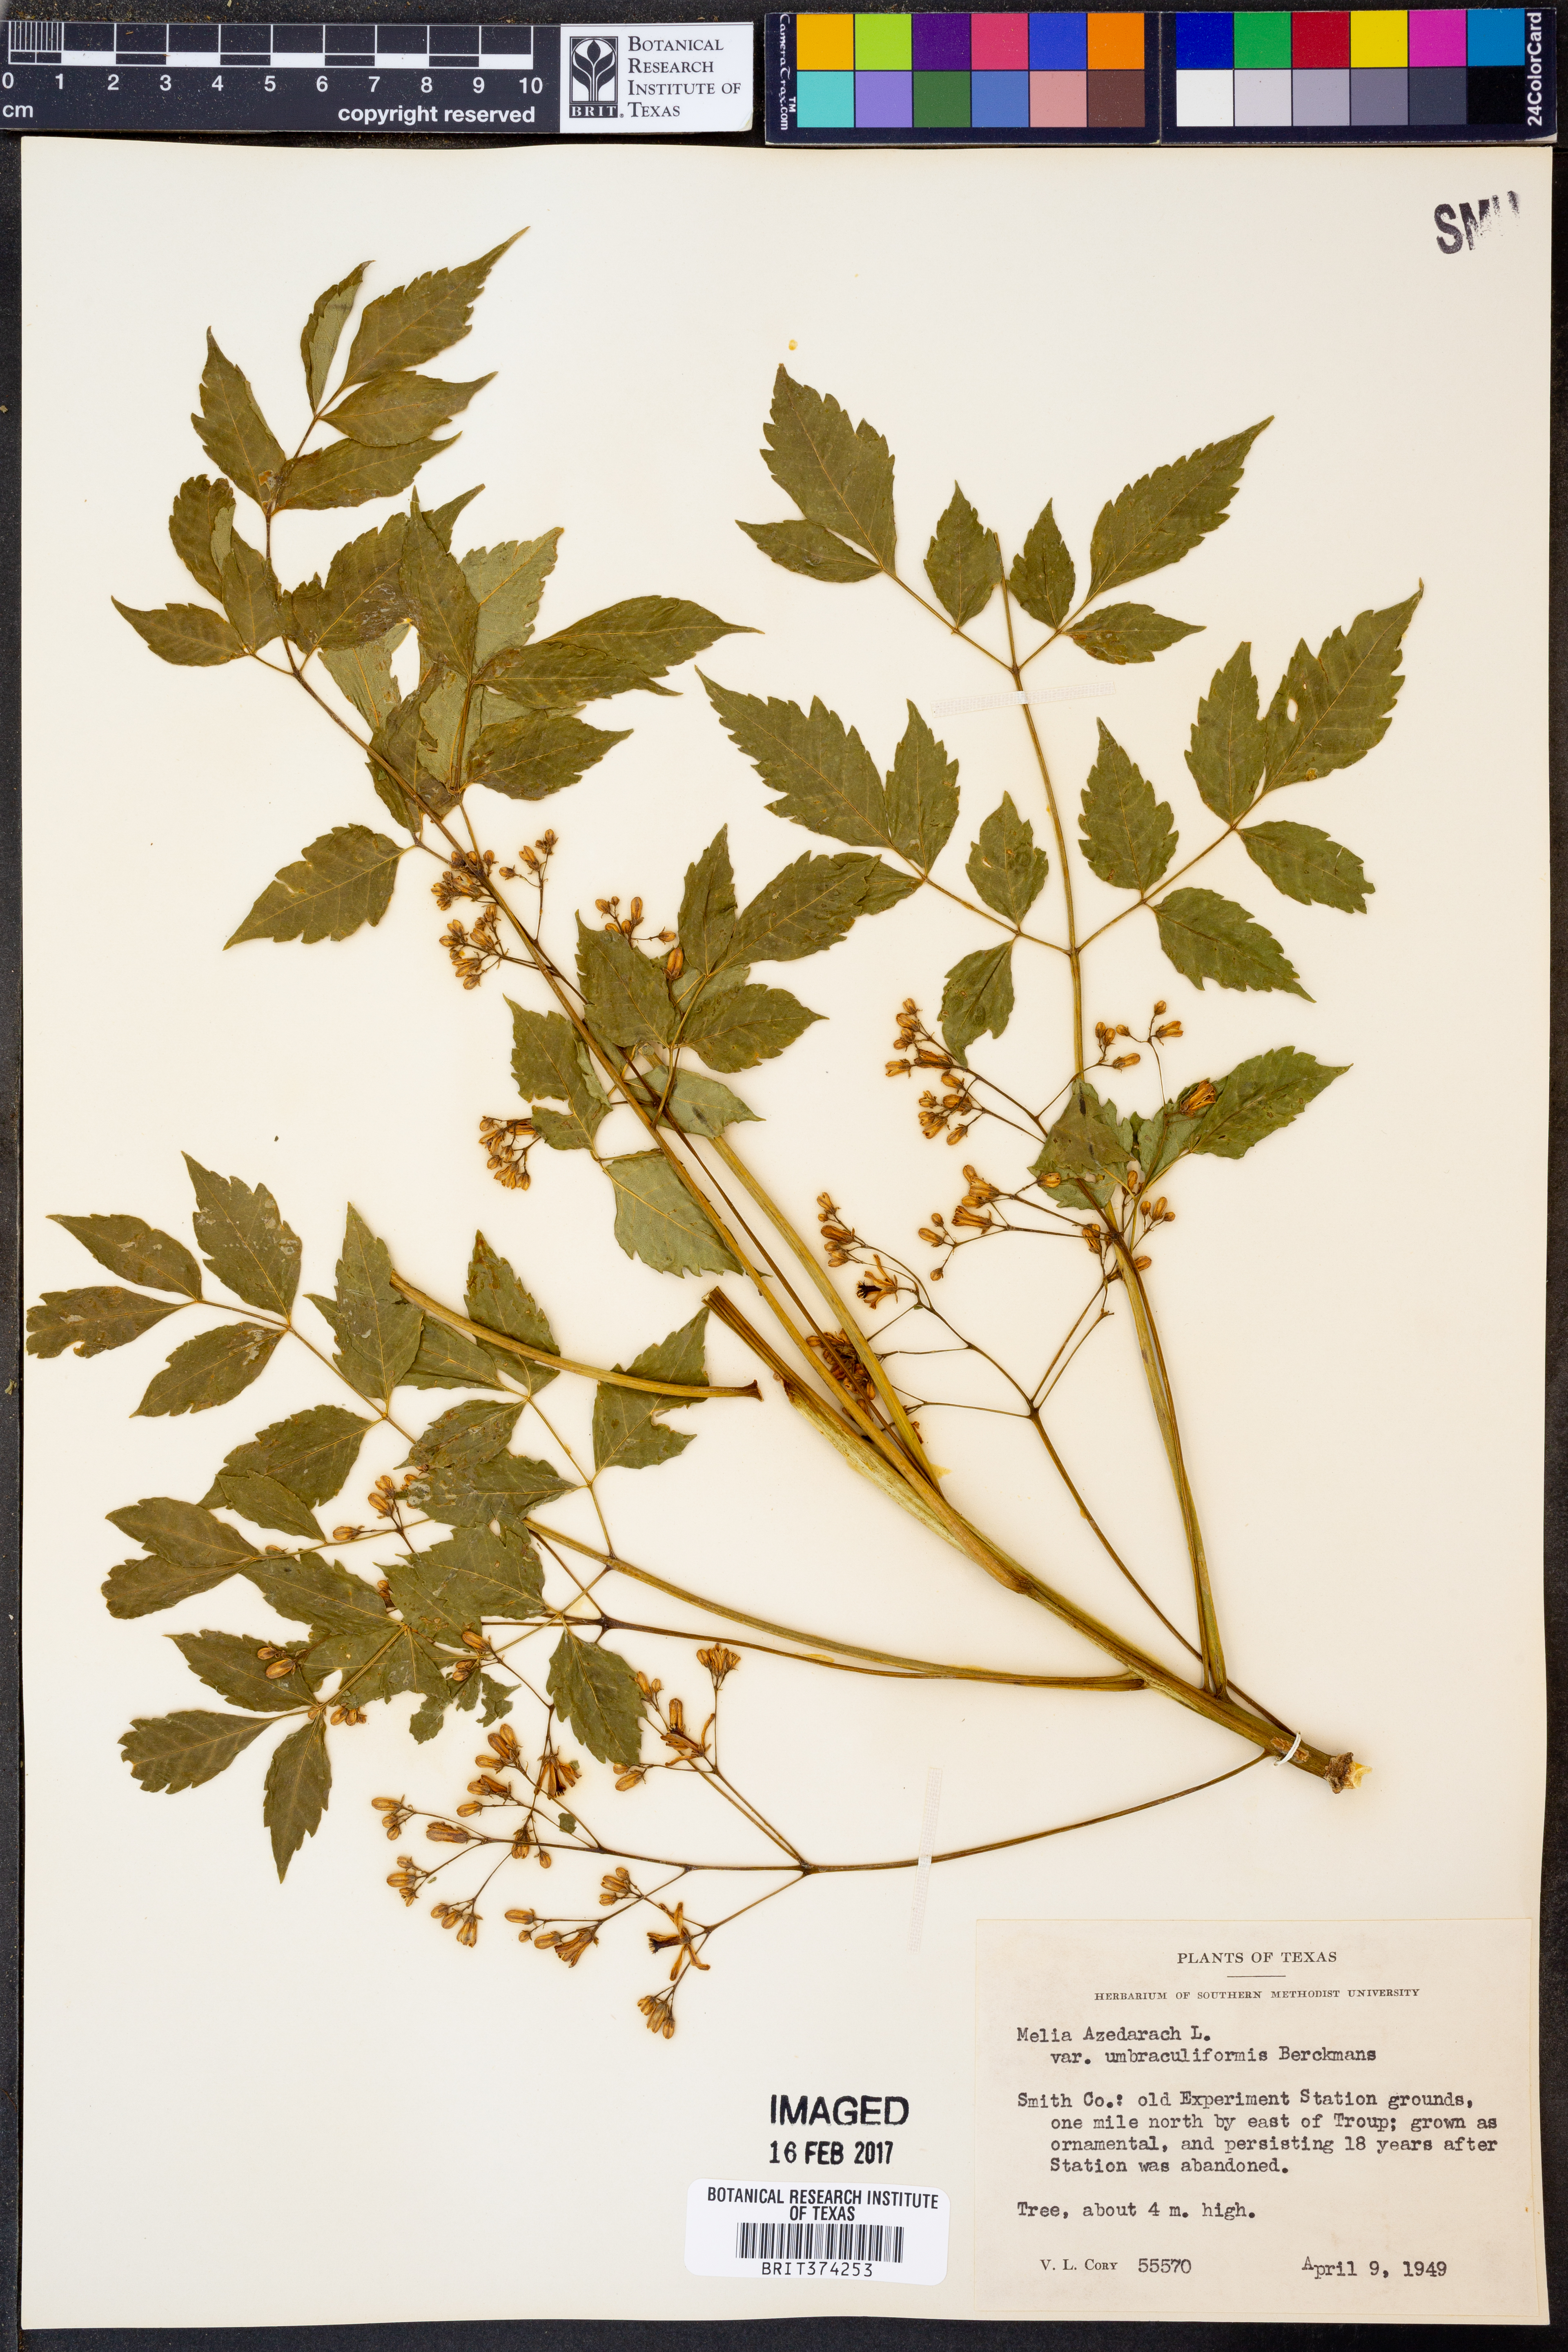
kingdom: Plantae
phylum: Tracheophyta
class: Magnoliopsida
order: Sapindales
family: Meliaceae
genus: Azadirachta
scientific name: Azadirachta indica
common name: Neem
